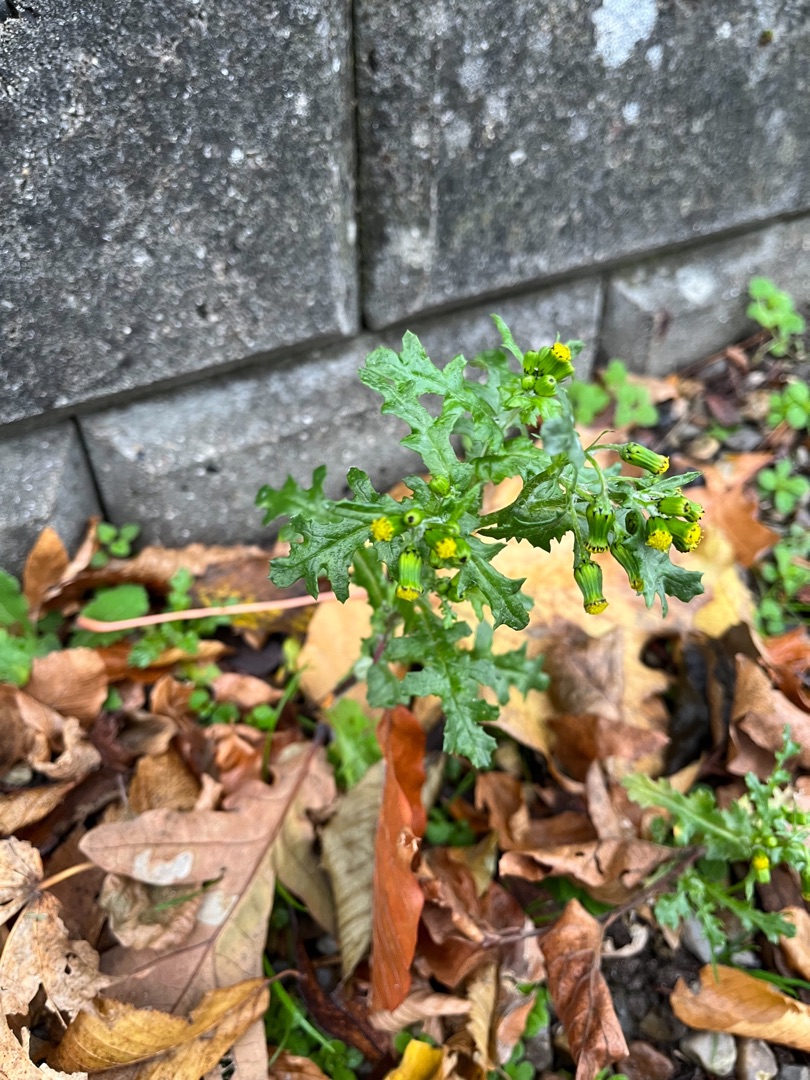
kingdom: Plantae
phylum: Tracheophyta
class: Magnoliopsida
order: Asterales
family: Asteraceae
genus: Senecio
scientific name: Senecio vulgaris
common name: Almindelig brandbæger
